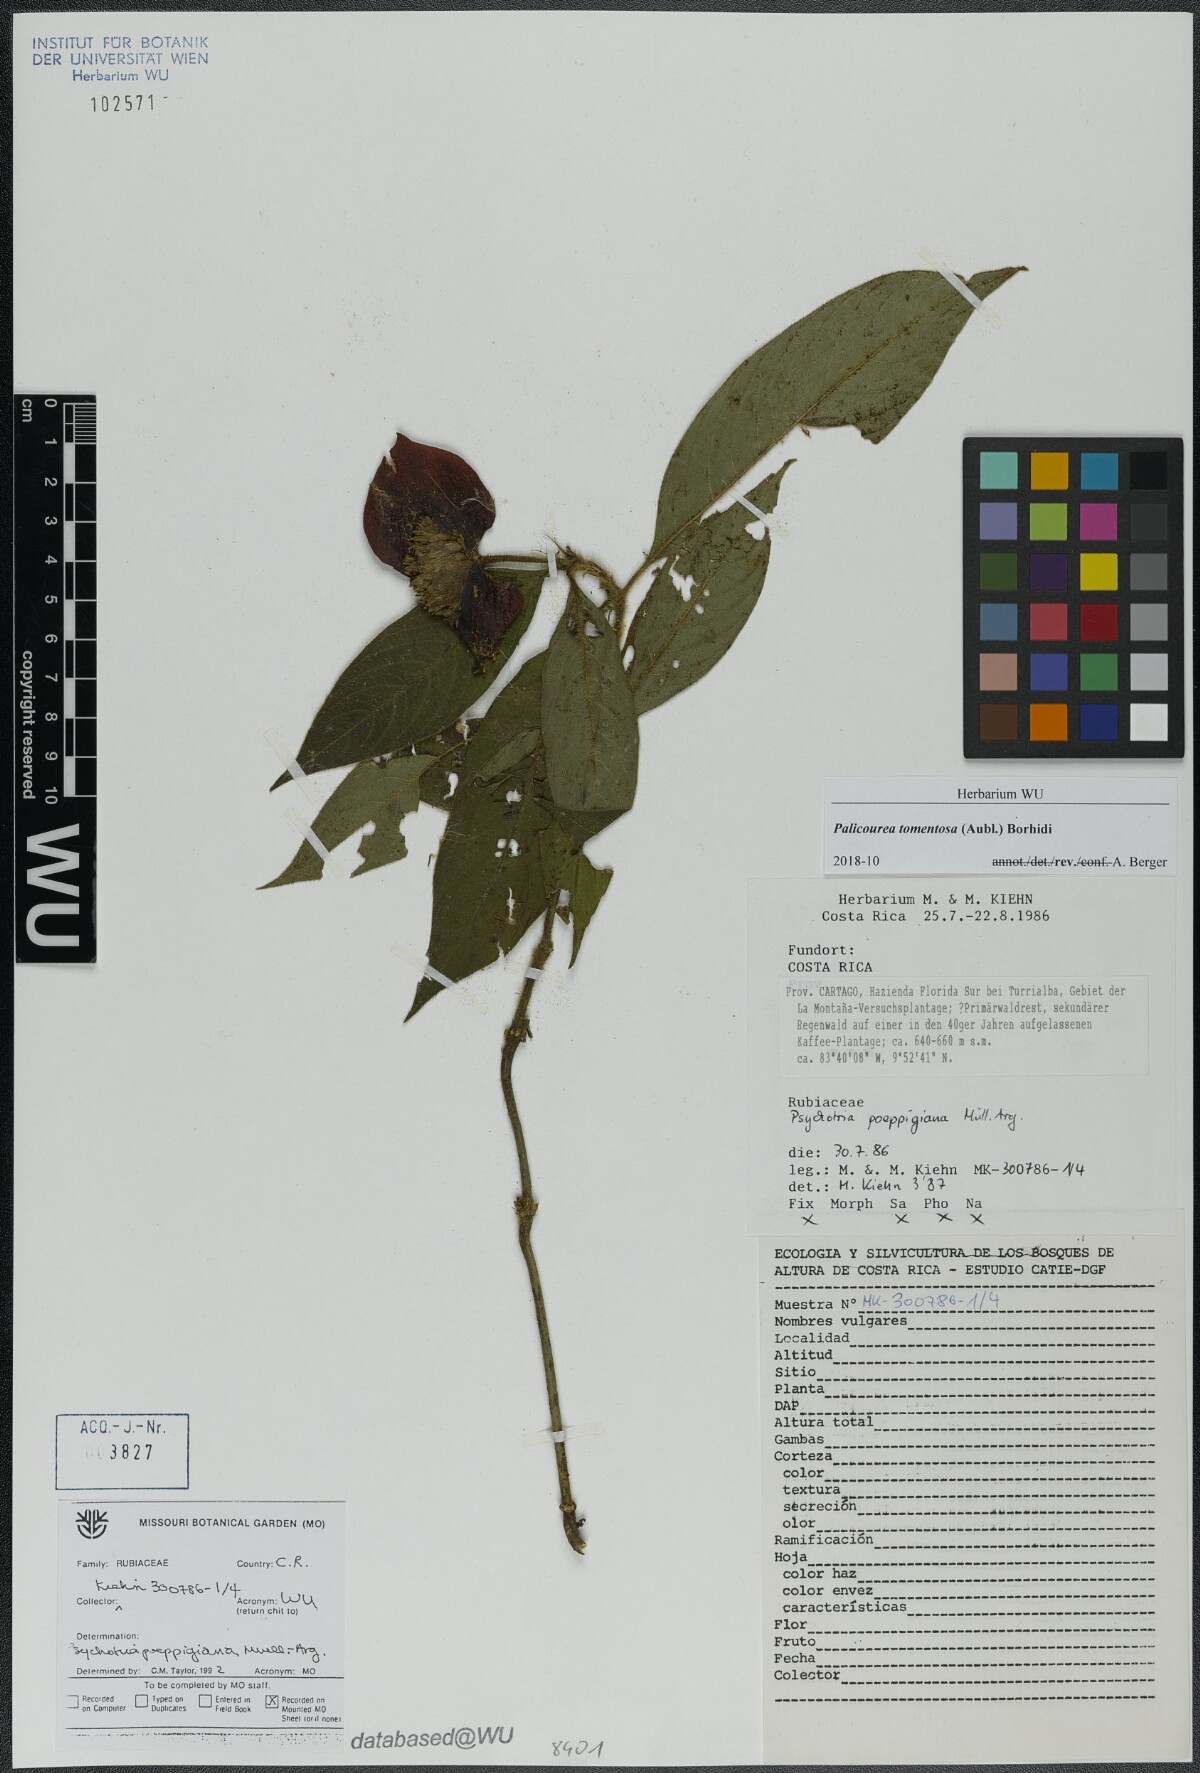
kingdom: Plantae
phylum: Tracheophyta
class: Magnoliopsida
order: Gentianales
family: Rubiaceae
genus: Palicourea
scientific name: Palicourea tomentosa
